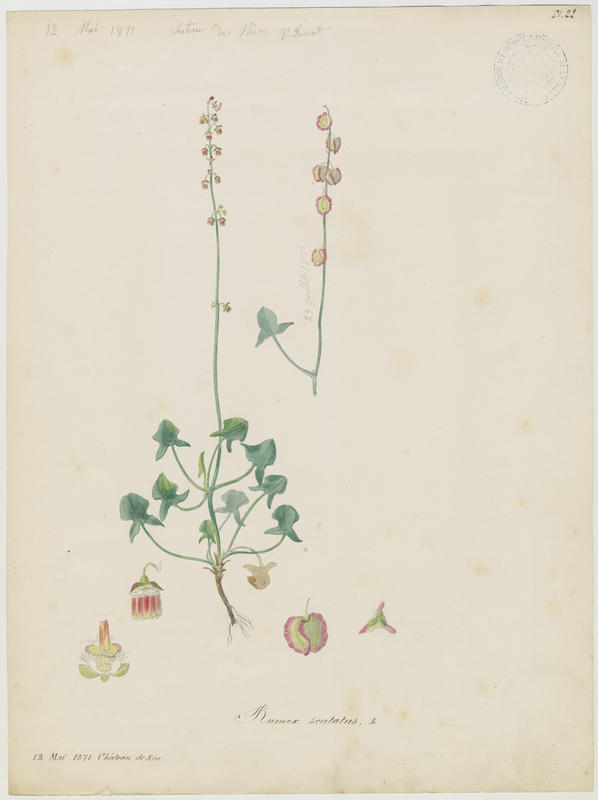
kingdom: Plantae
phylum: Tracheophyta
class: Magnoliopsida
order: Caryophyllales
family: Polygonaceae
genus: Rumex
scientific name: Rumex scutatus
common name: French sorrel
